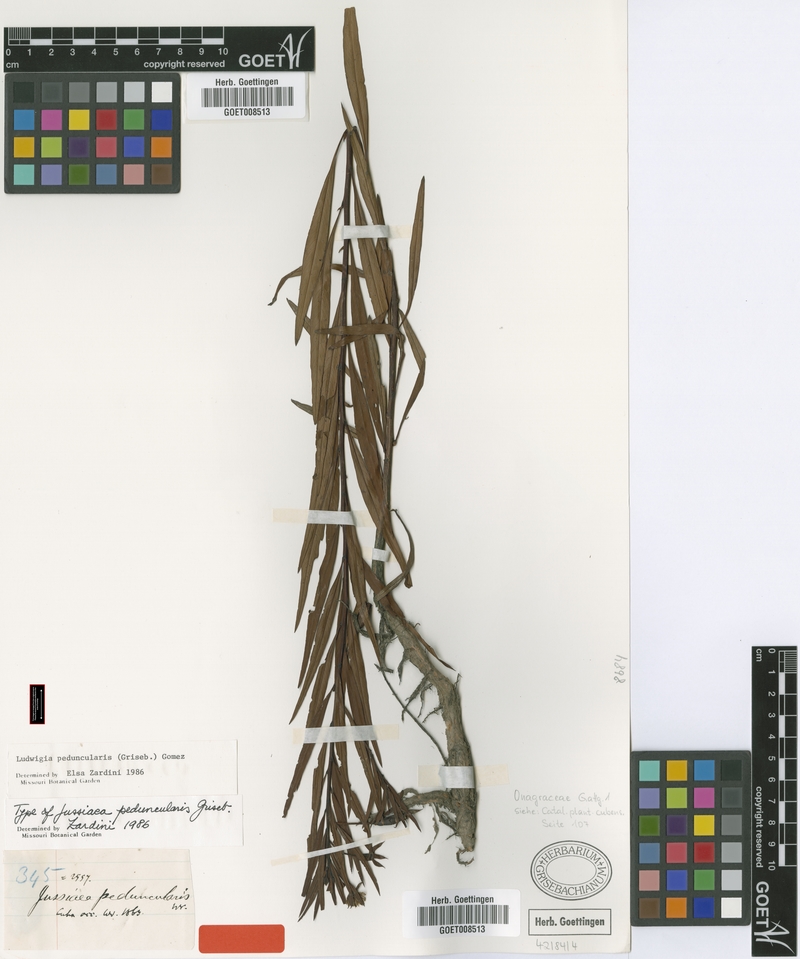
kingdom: Plantae
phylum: Tracheophyta
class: Magnoliopsida
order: Myrtales
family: Onagraceae
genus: Ludwigia
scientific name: Ludwigia peduncularis
